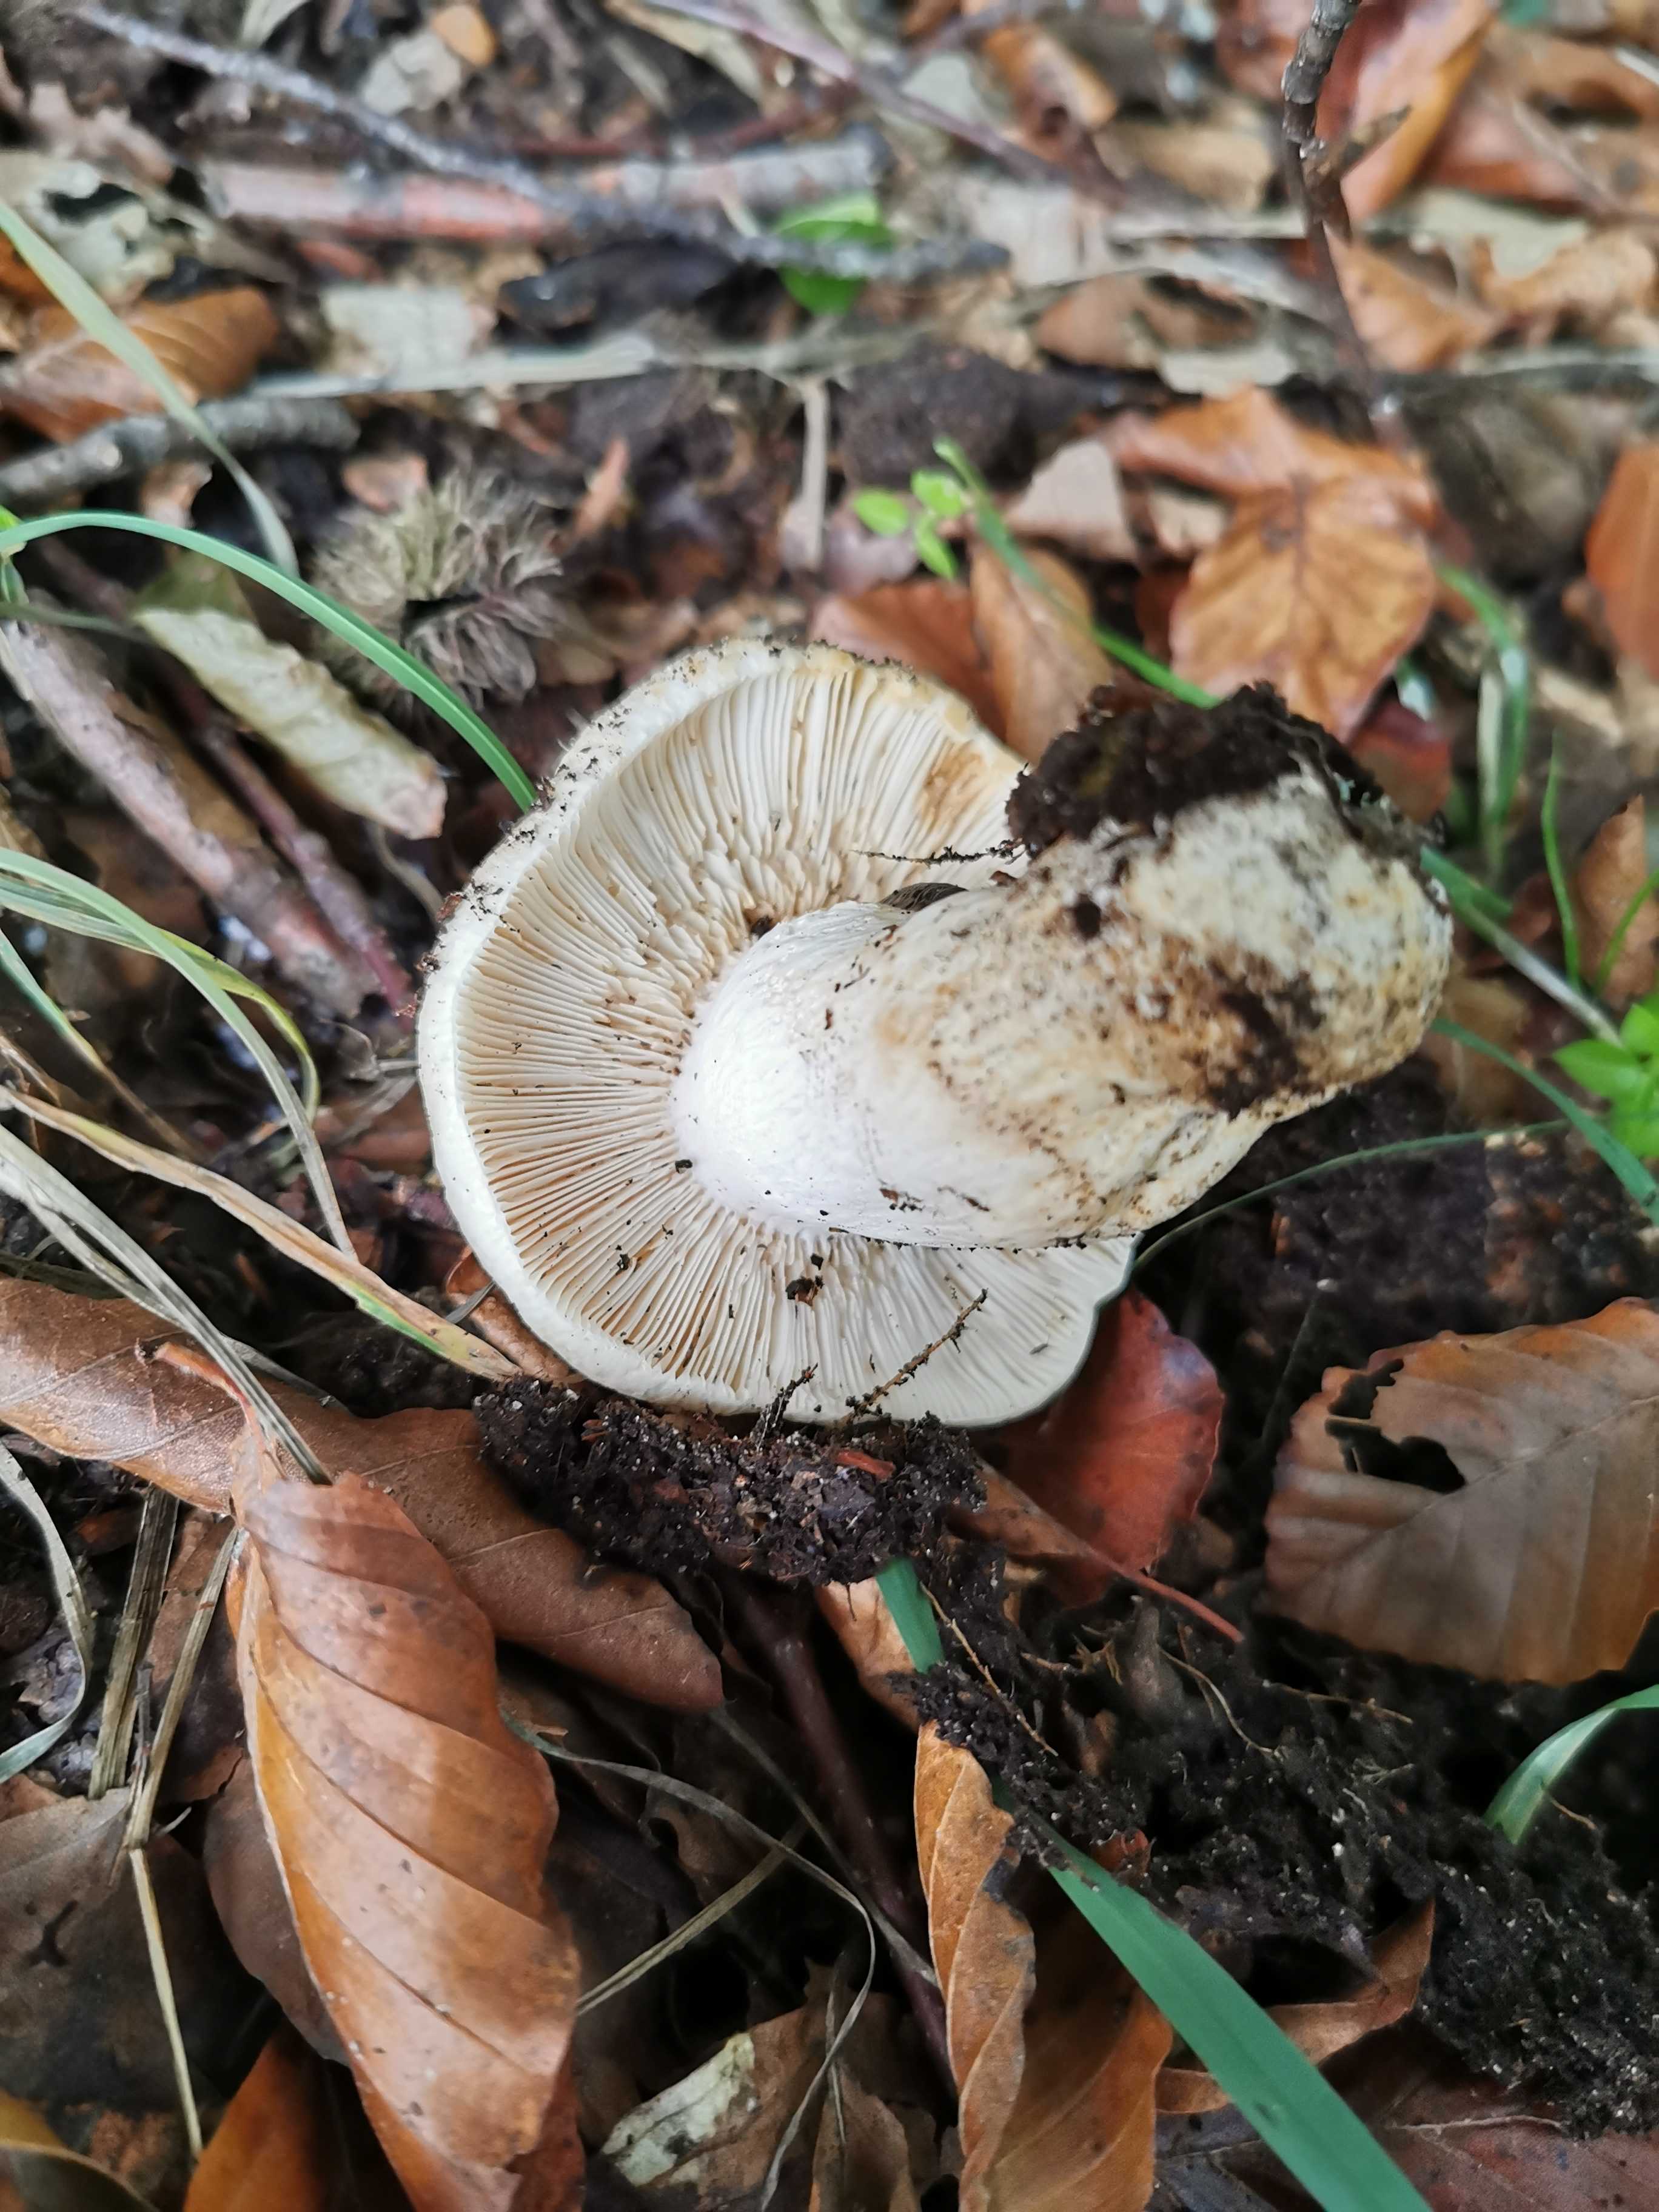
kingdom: Fungi
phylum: Basidiomycota
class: Agaricomycetes
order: Russulales
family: Russulaceae
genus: Russula
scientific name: Russula virescens
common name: spanskgrøn skørhat
